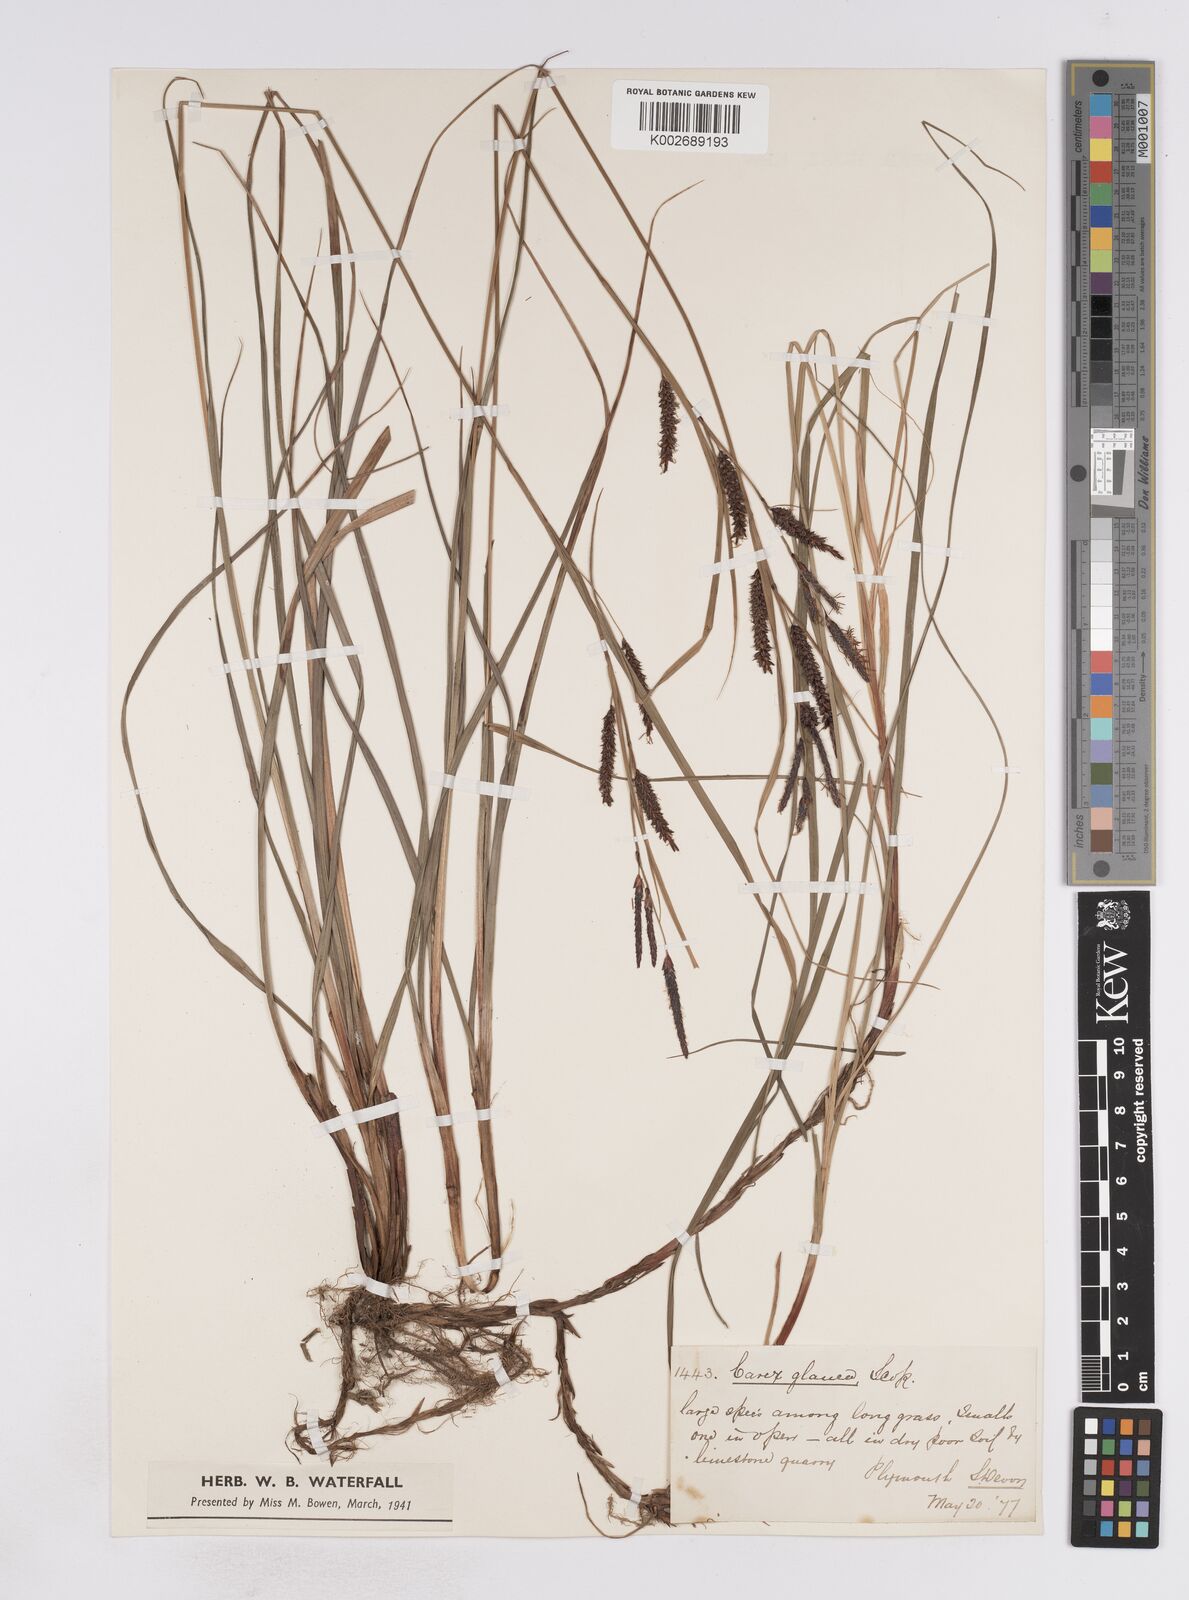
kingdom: Plantae
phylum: Tracheophyta
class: Liliopsida
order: Poales
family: Cyperaceae
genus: Carex
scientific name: Carex flacca
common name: Glaucous sedge
